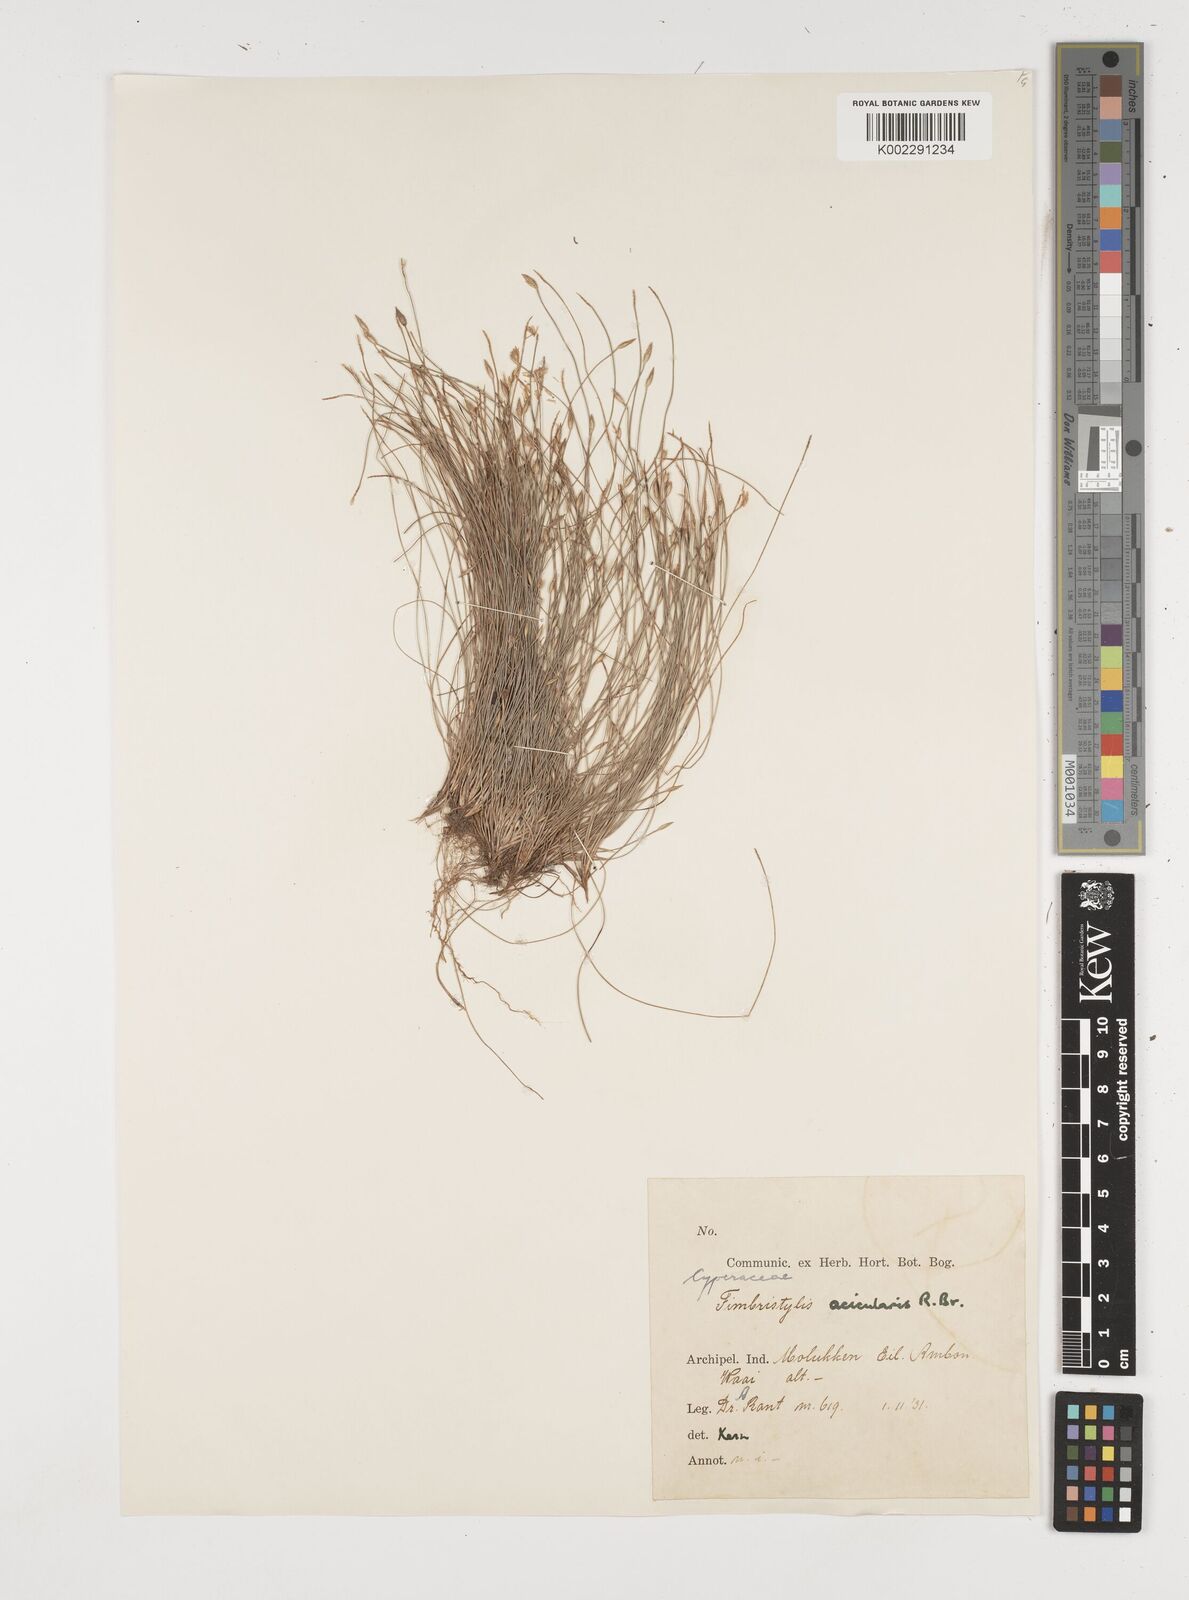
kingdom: Plantae
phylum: Tracheophyta
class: Liliopsida
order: Poales
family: Cyperaceae
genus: Fimbristylis
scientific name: Fimbristylis acicularis
